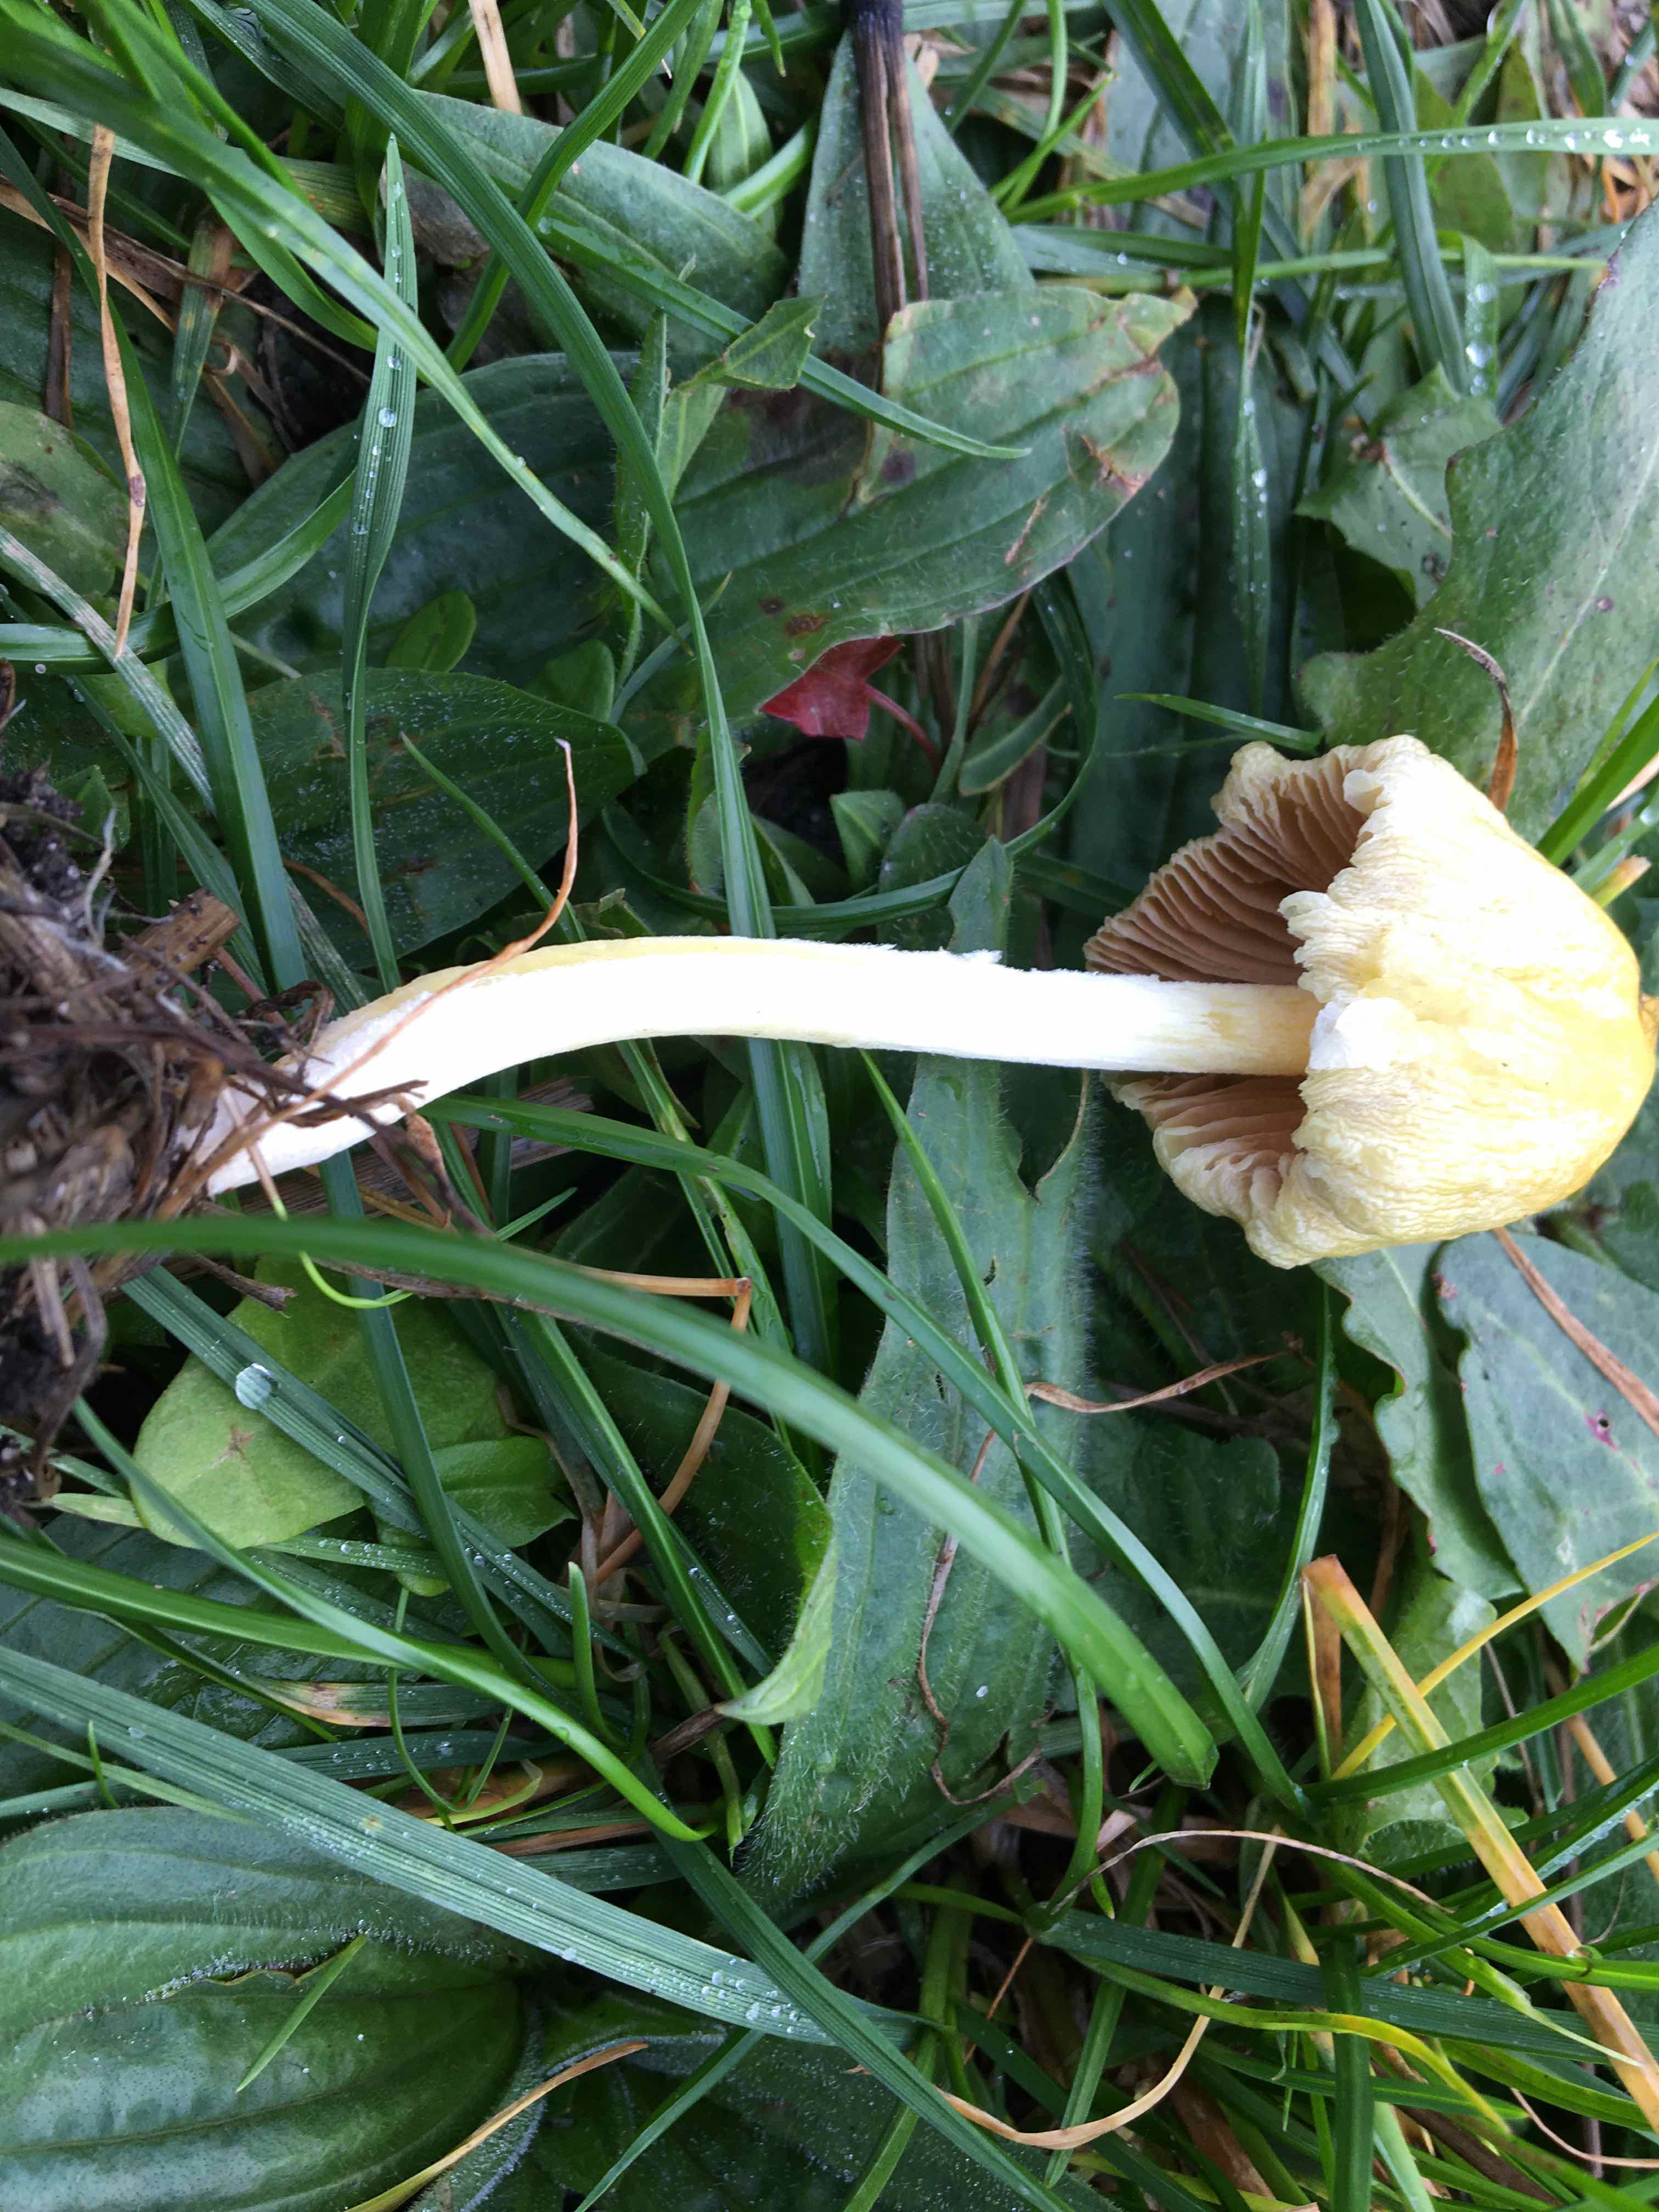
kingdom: Fungi
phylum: Basidiomycota
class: Agaricomycetes
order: Agaricales
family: Bolbitiaceae
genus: Bolbitius
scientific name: Bolbitius titubans
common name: almindelig gulhat
